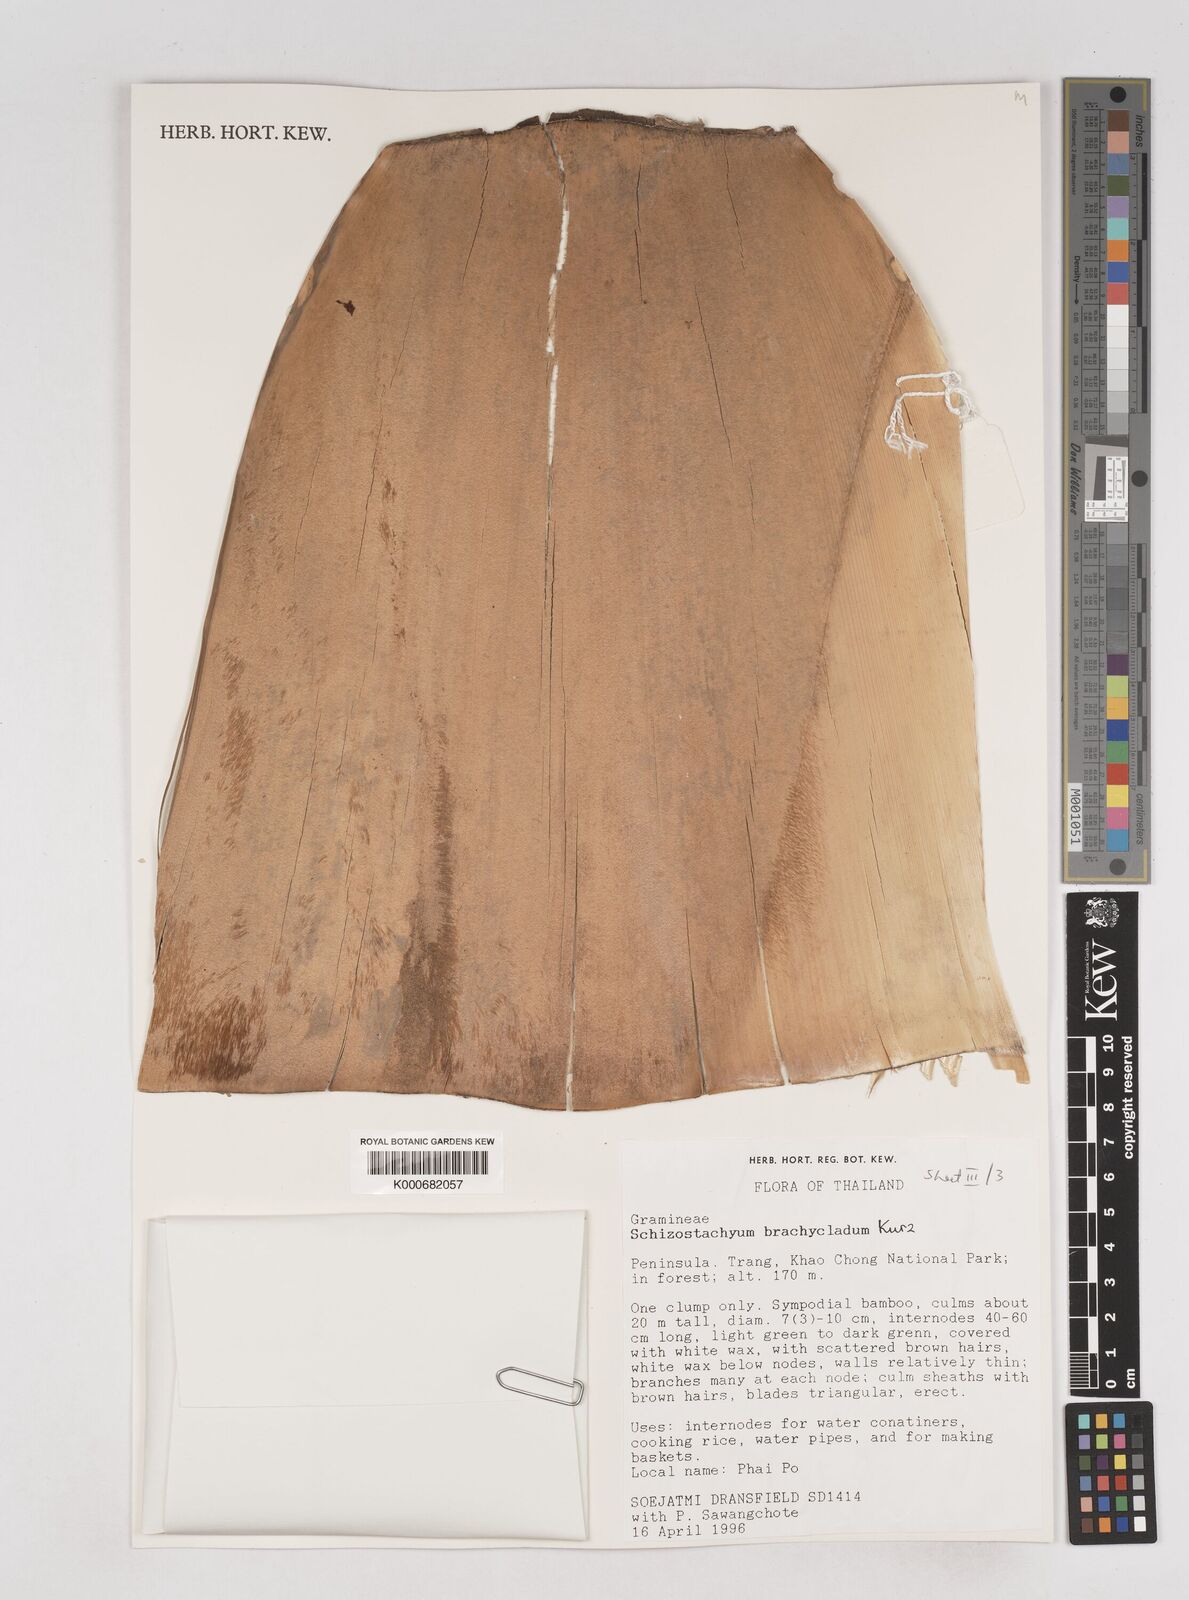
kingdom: Plantae
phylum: Tracheophyta
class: Liliopsida
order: Poales
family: Poaceae
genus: Schizostachyum
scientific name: Schizostachyum brachycladum
